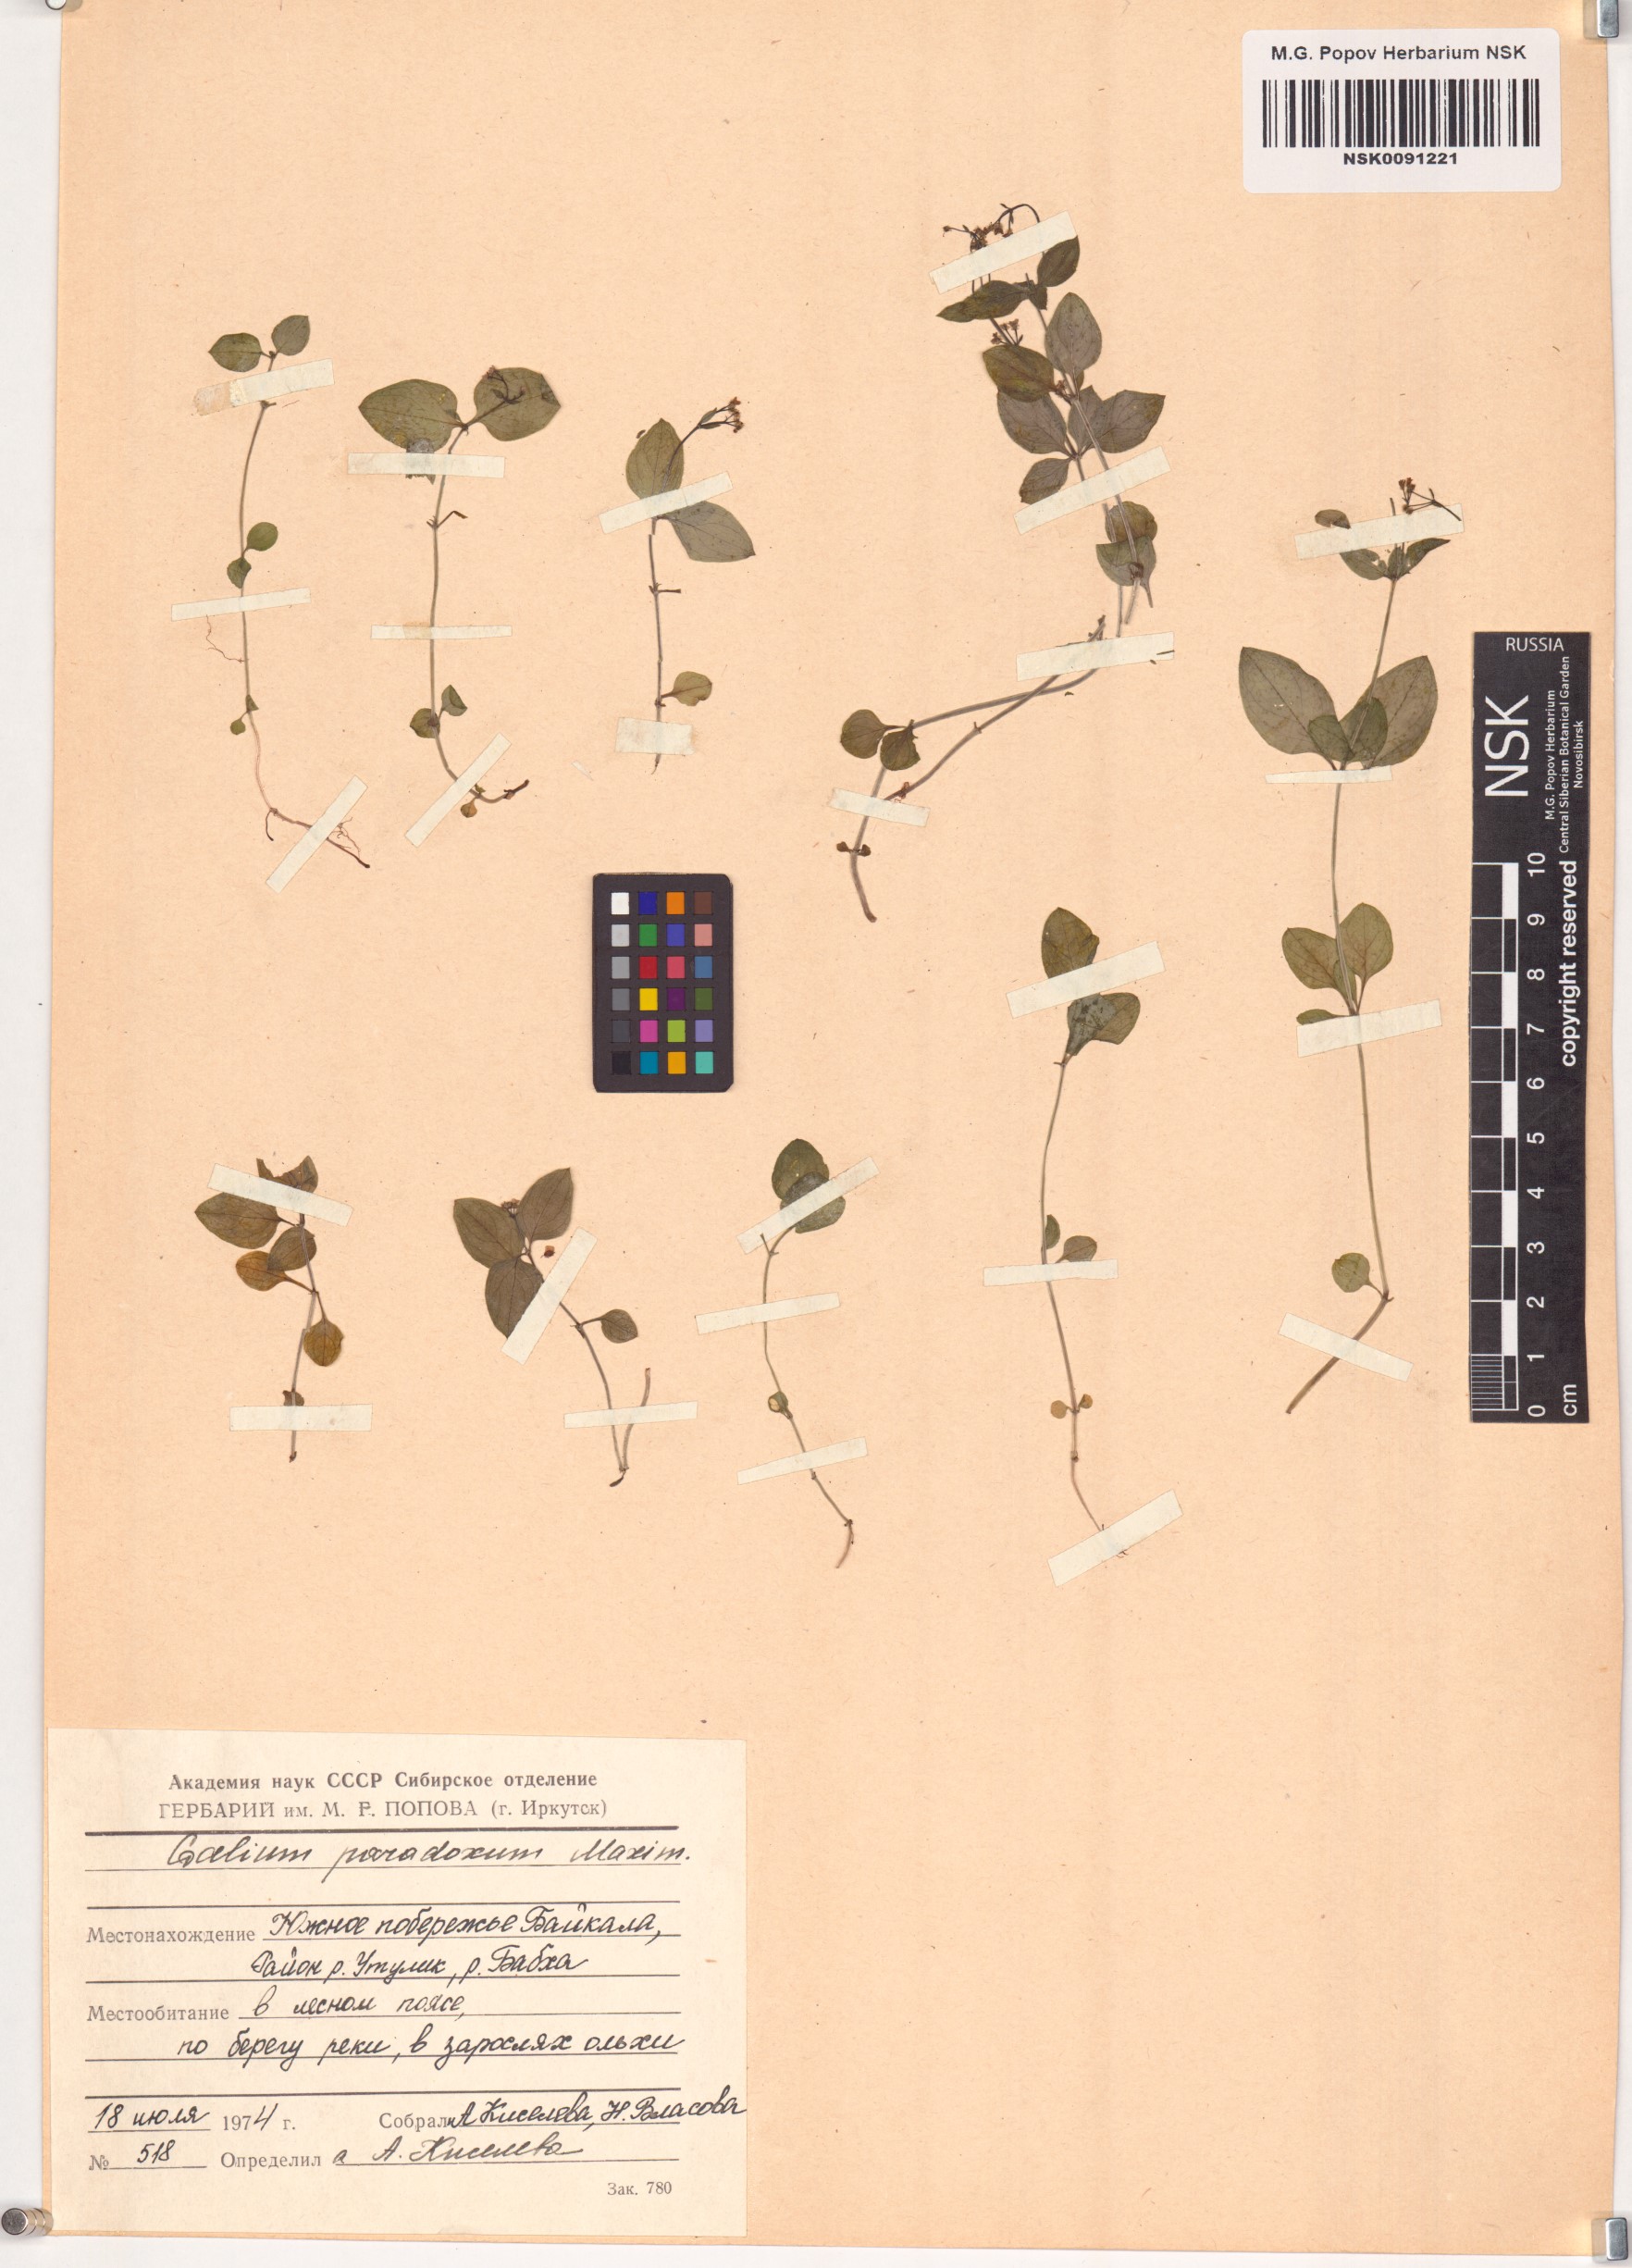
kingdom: Plantae
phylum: Tracheophyta
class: Magnoliopsida
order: Gentianales
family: Rubiaceae
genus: Pseudogalium
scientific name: Pseudogalium paradoxum
